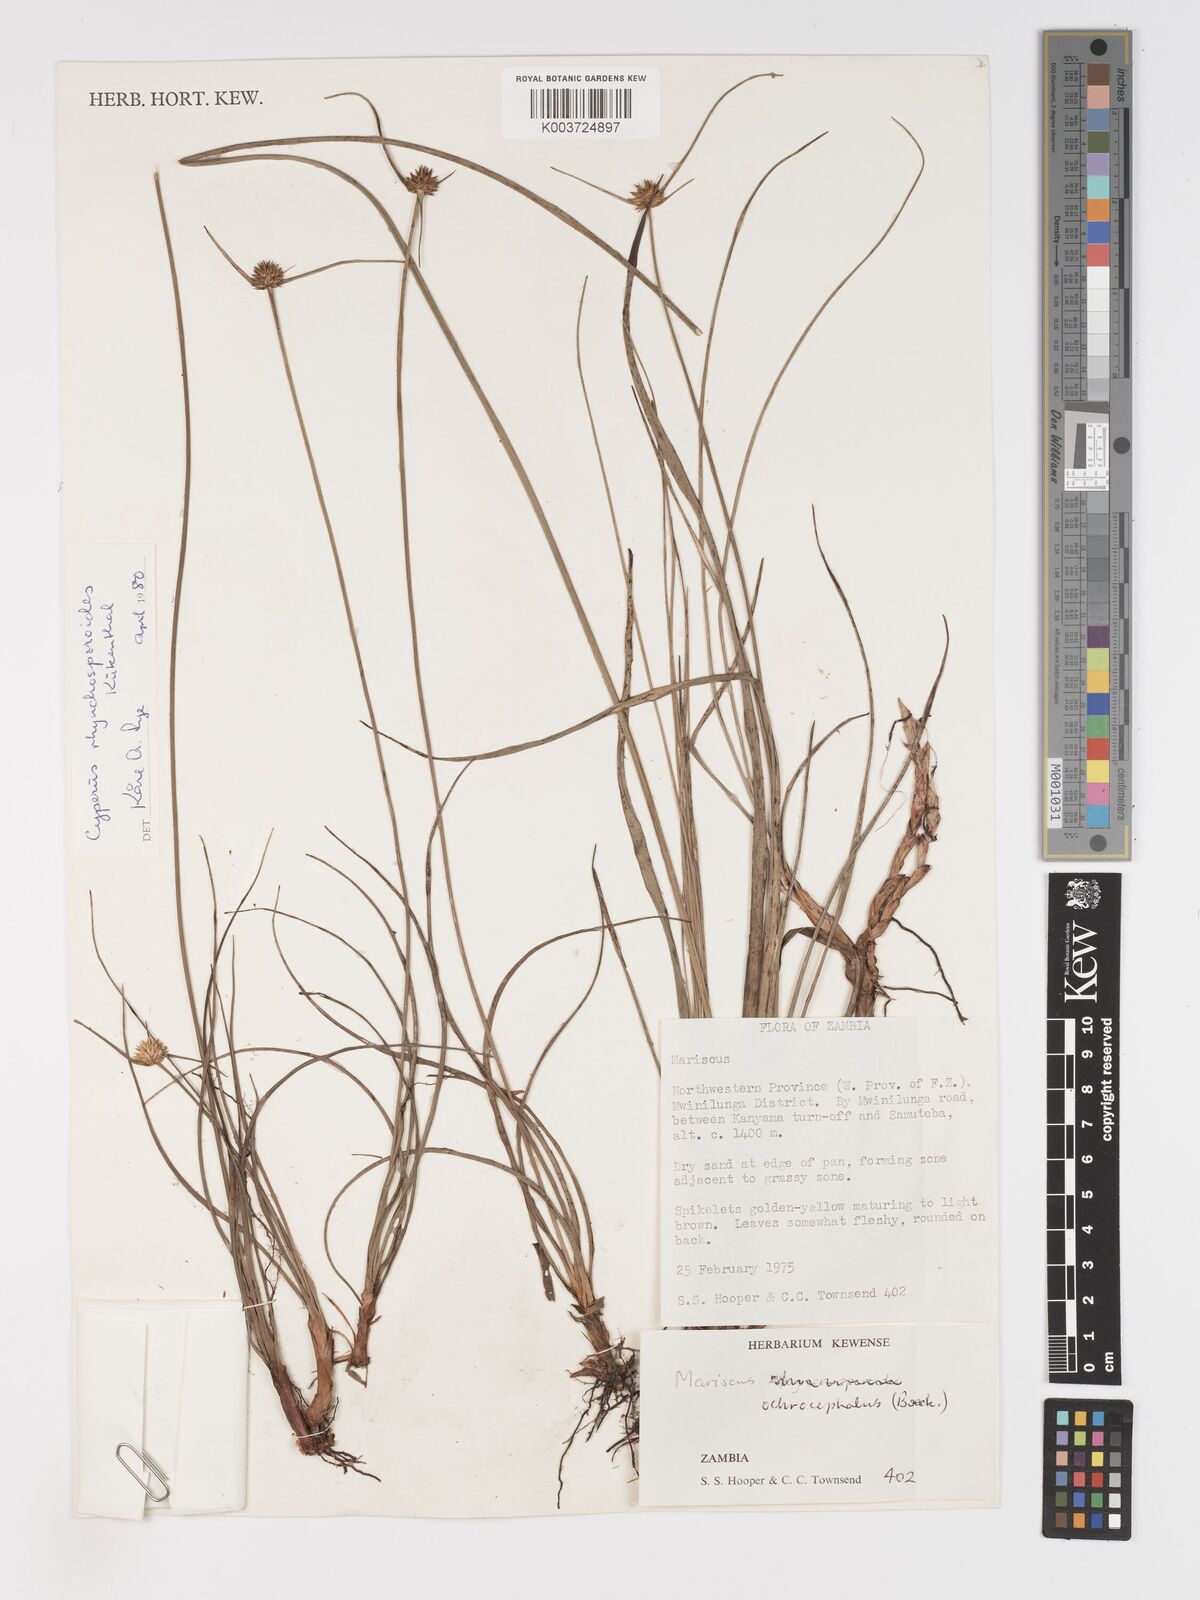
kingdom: Plantae
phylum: Tracheophyta
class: Liliopsida
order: Poales
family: Cyperaceae
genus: Cyperus
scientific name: Cyperus rhynchosporoides
